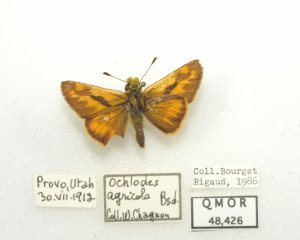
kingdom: Animalia
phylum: Arthropoda
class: Insecta
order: Lepidoptera
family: Hesperiidae
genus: Ochlodes
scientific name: Ochlodes sylvanoides
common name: Woodland Skipper
